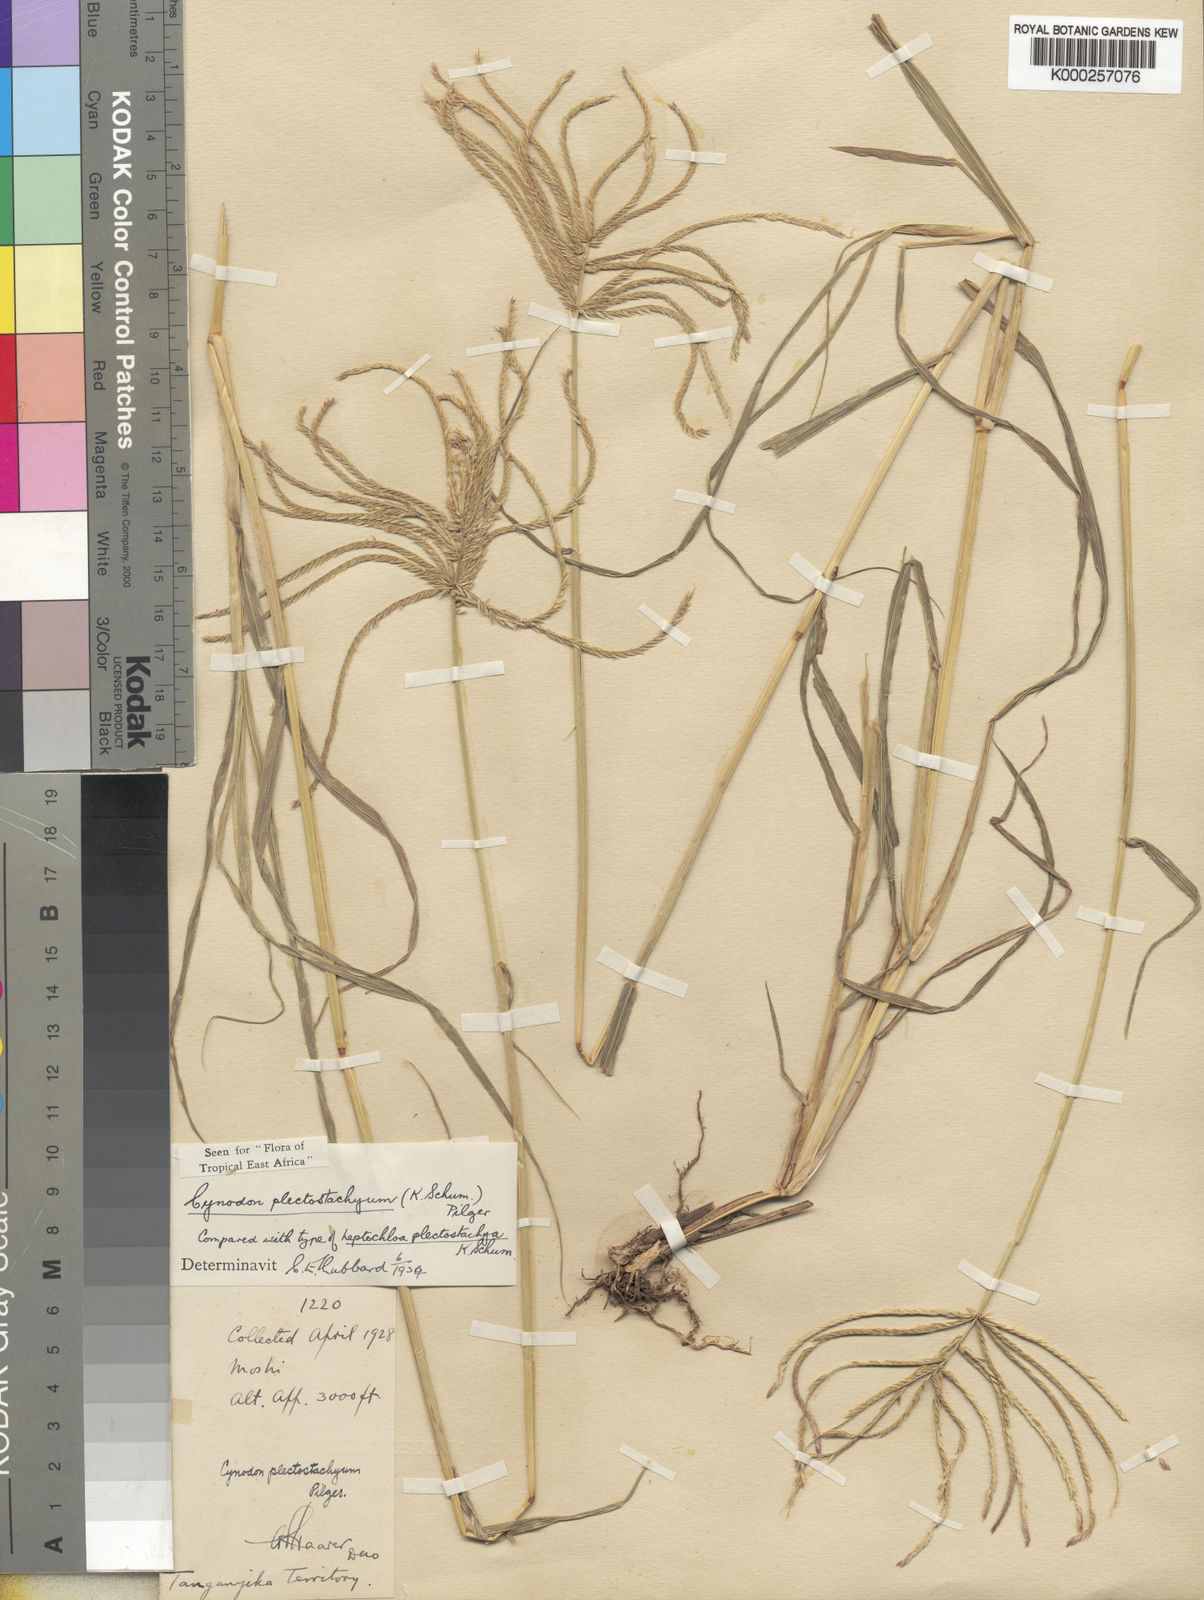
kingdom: Plantae
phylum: Tracheophyta
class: Liliopsida
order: Poales
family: Poaceae
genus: Cynodon
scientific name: Cynodon plectostachyus
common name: Stargrass
